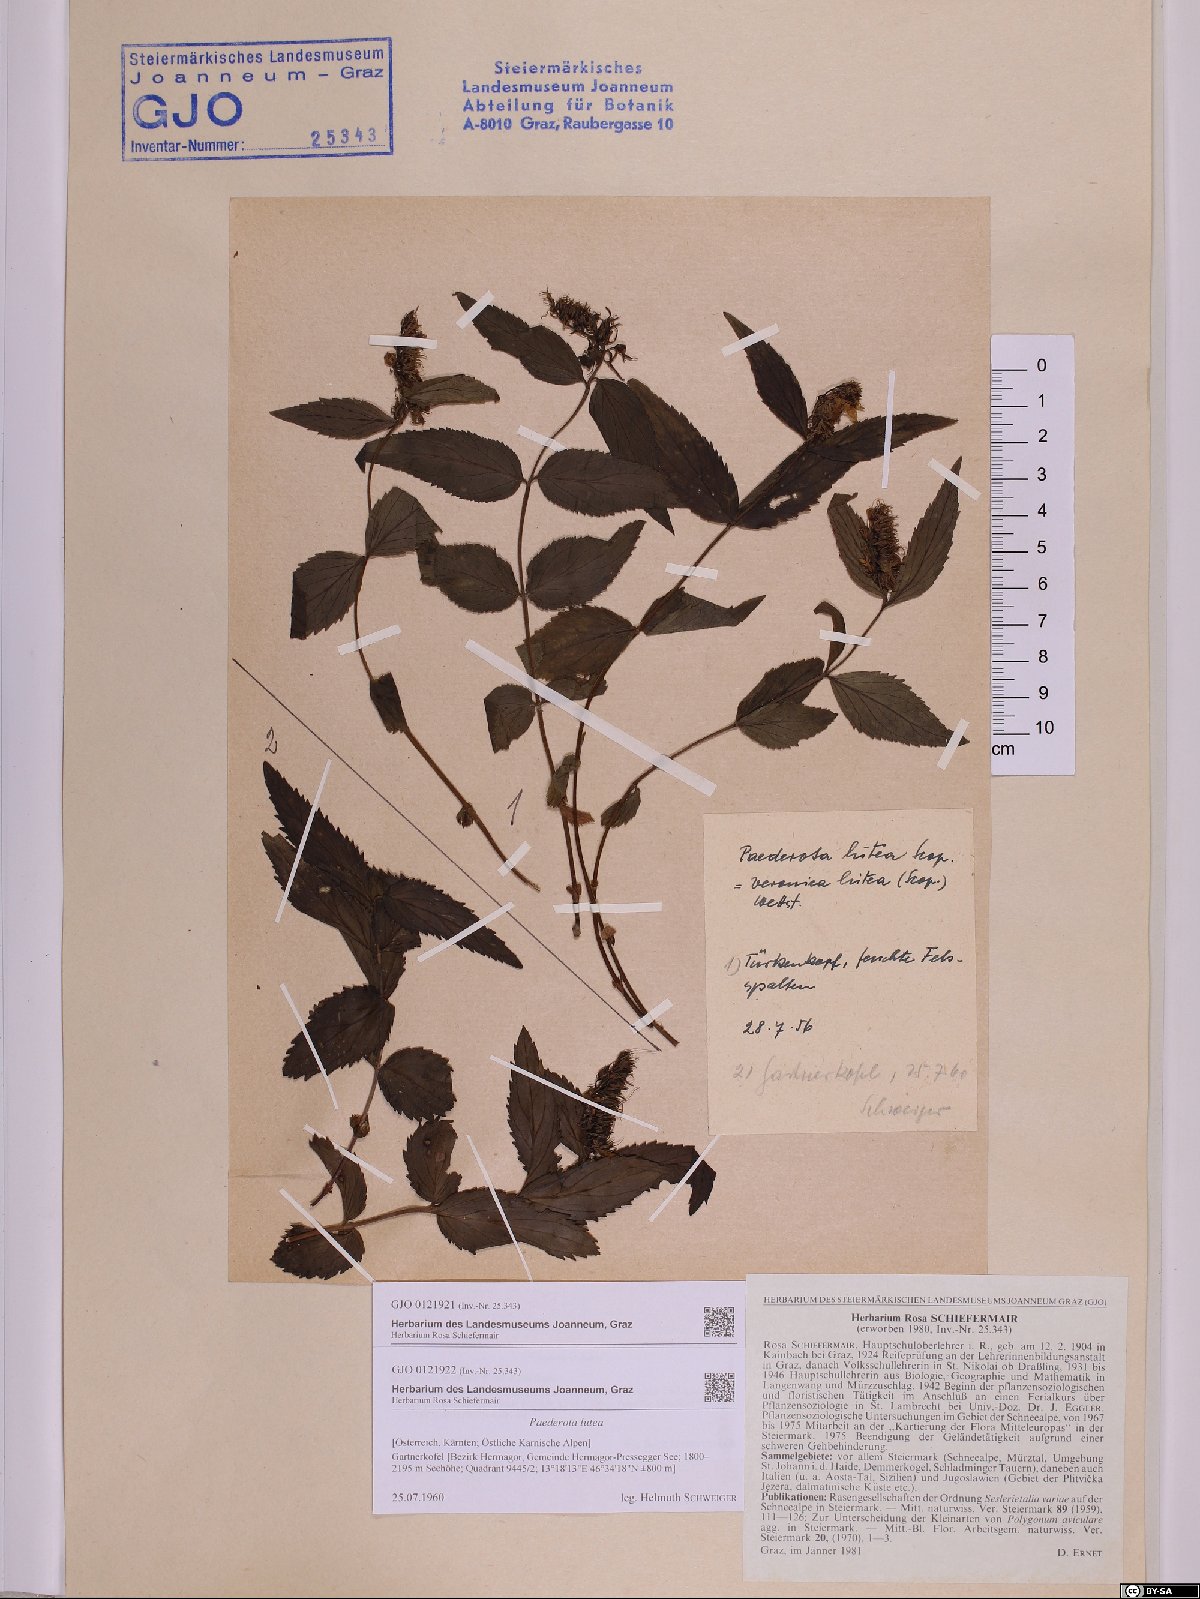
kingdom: Plantae
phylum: Tracheophyta
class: Magnoliopsida
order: Lamiales
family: Plantaginaceae
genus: Paederota
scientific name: Paederota lutea
